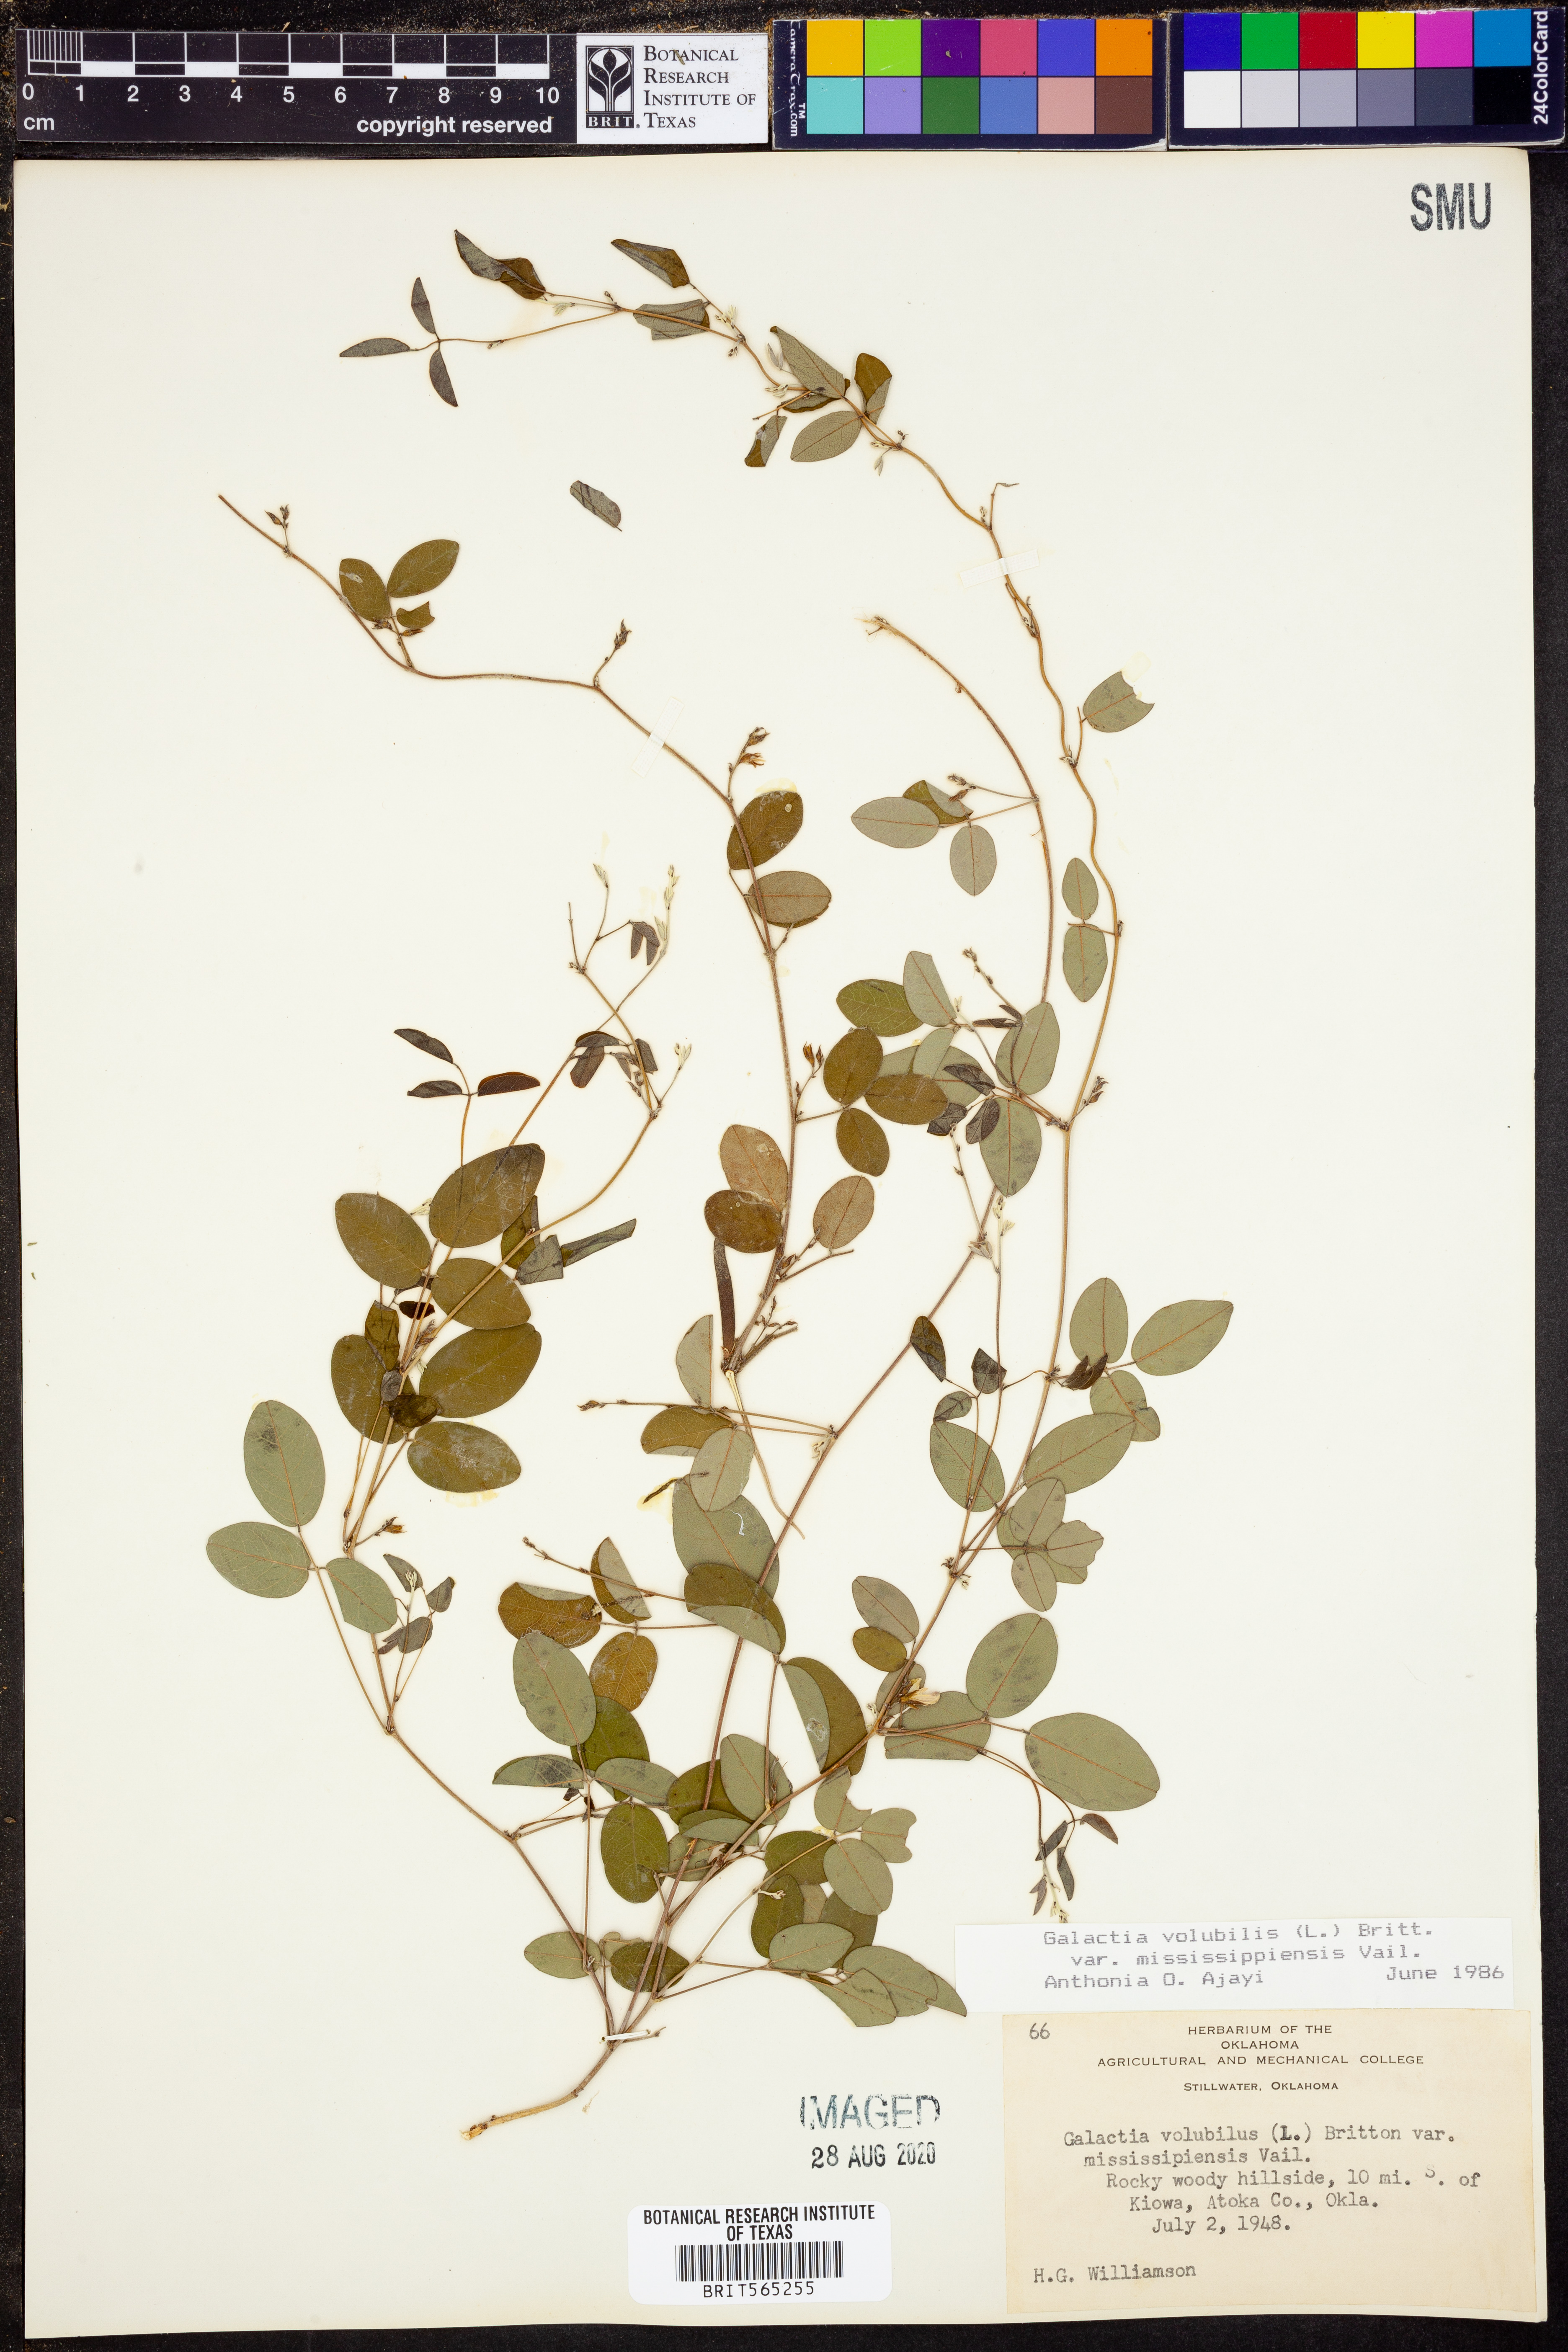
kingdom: Plantae
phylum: Tracheophyta
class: Magnoliopsida
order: Fabales
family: Fabaceae
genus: Galactia
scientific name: Galactia volubilis
